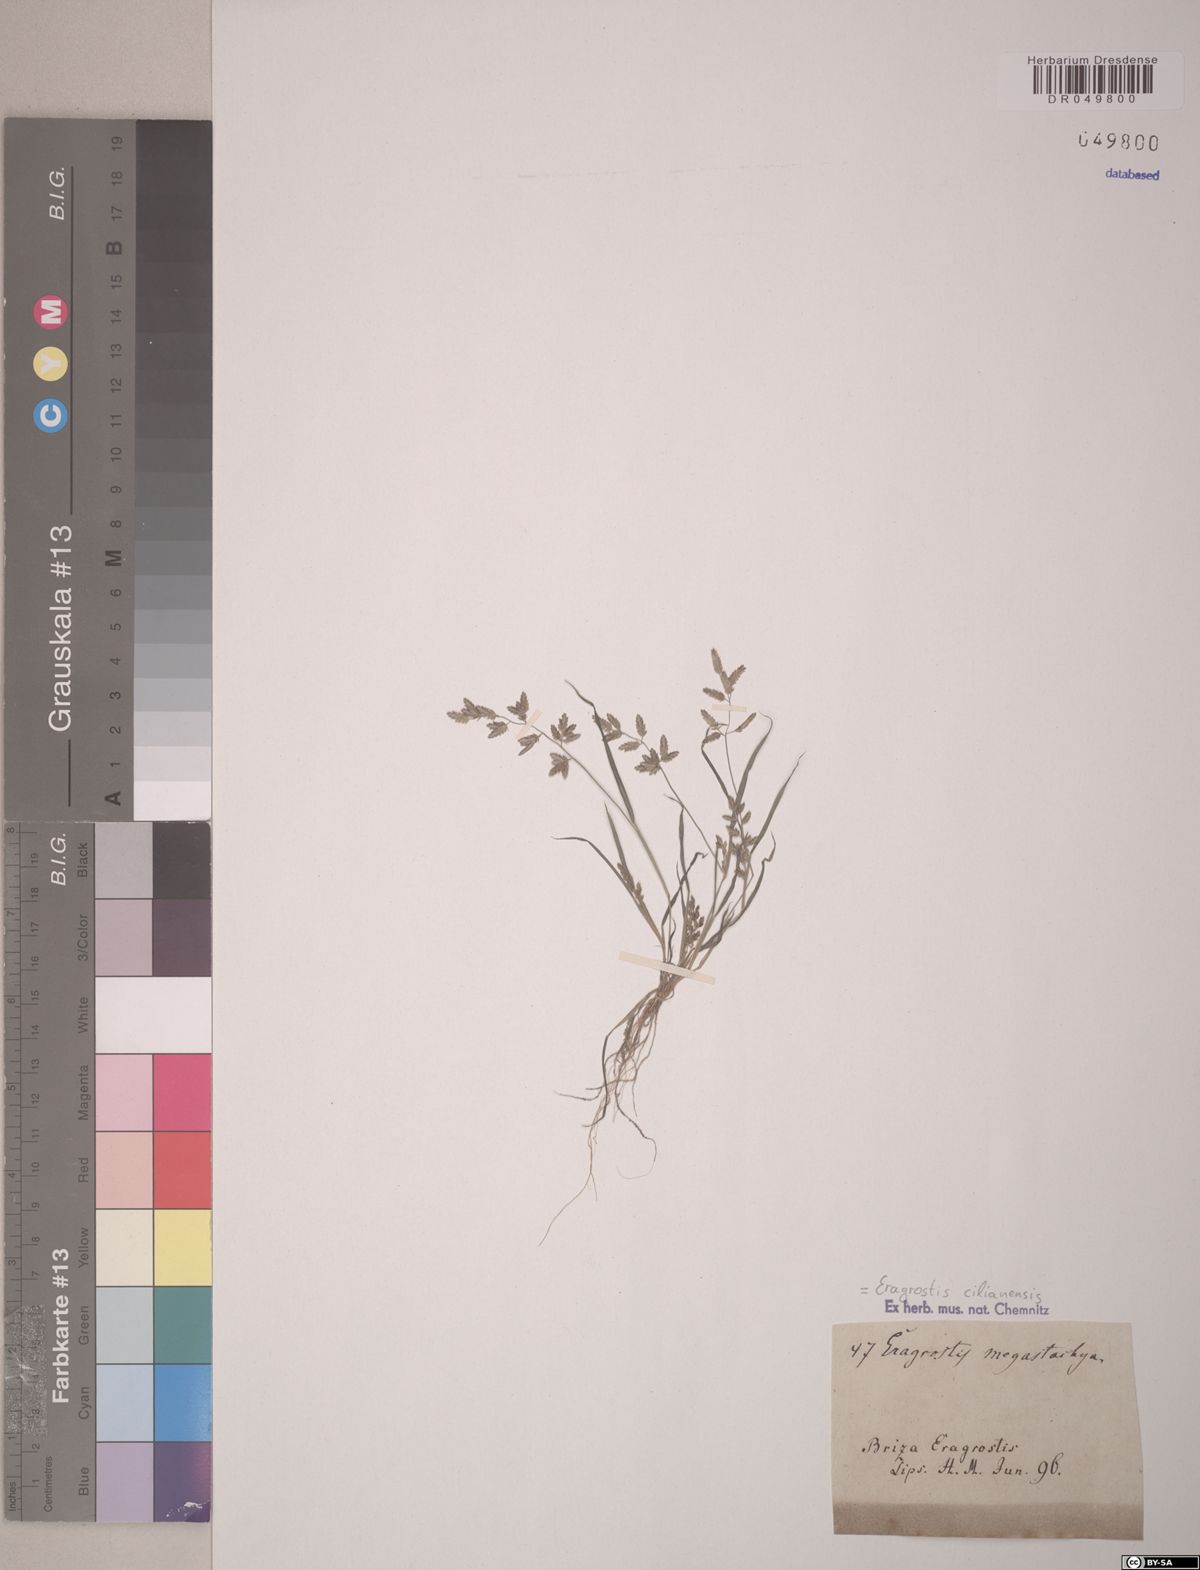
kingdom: Plantae
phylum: Tracheophyta
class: Liliopsida
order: Poales
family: Poaceae
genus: Eragrostis
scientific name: Eragrostis cilianensis
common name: Stinkgrass
